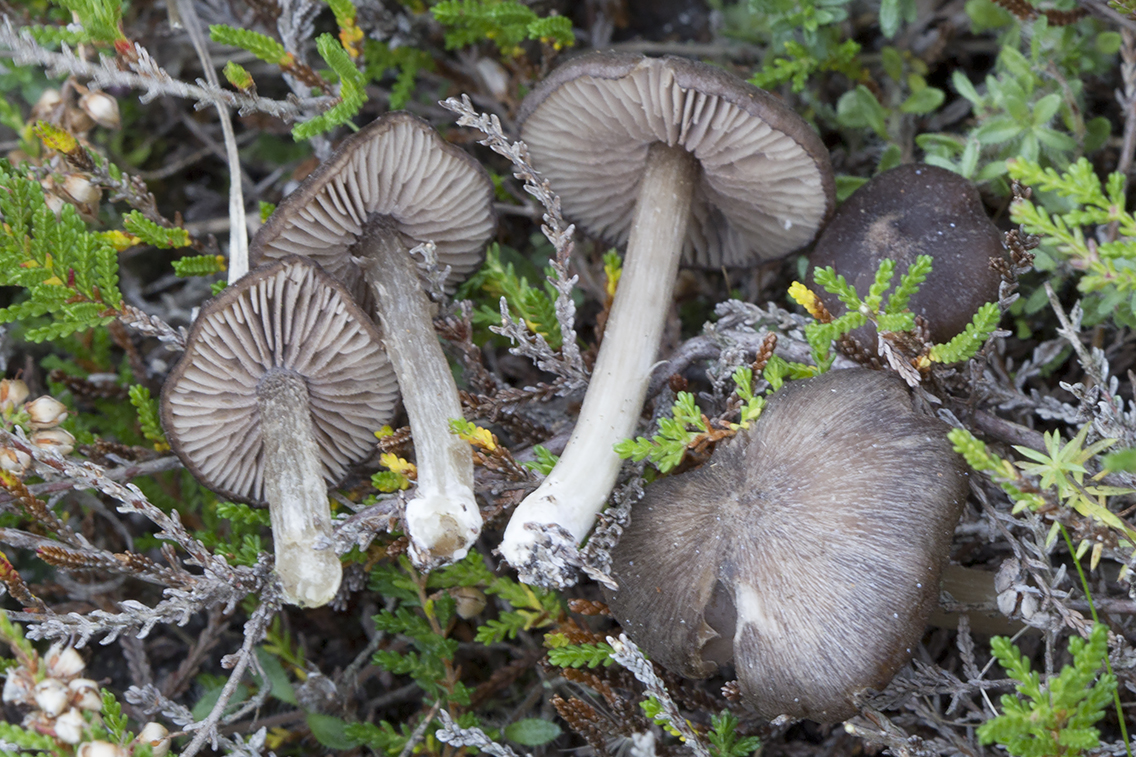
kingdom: Fungi
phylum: Basidiomycota
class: Agaricomycetes
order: Agaricales
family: Entolomataceae
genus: Entoloma
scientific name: Entoloma
